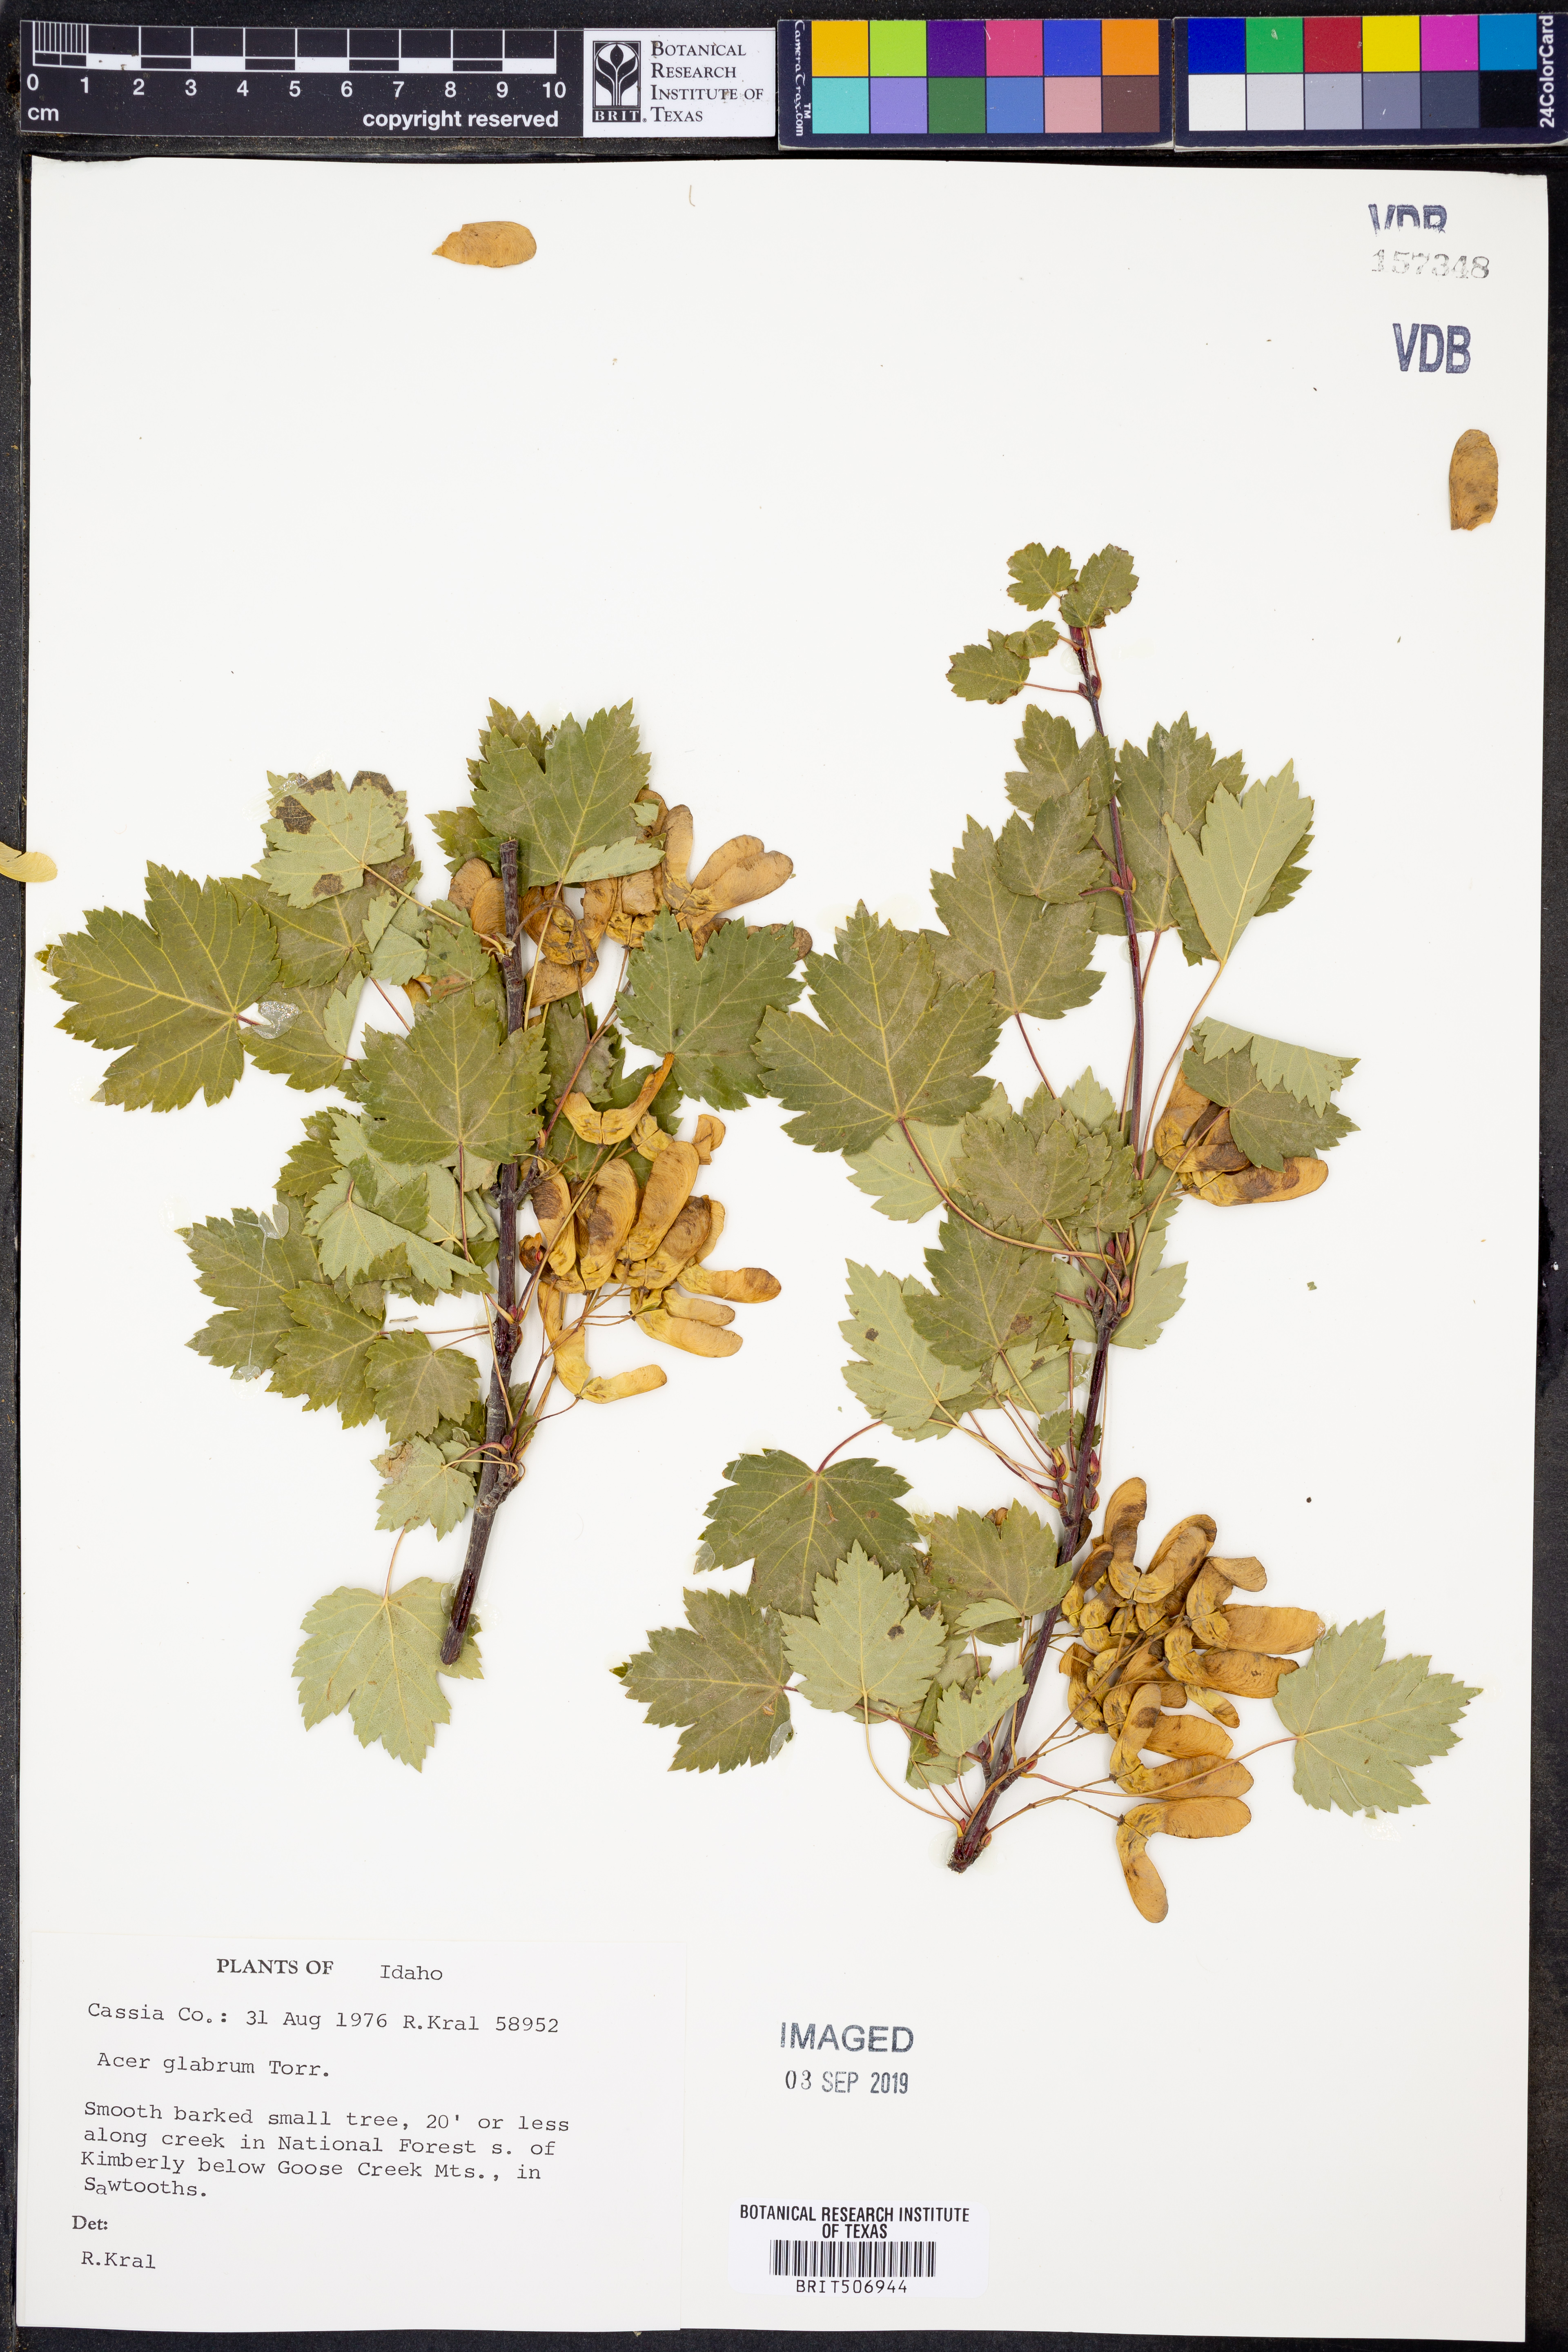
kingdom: Plantae
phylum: Tracheophyta
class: Magnoliopsida
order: Sapindales
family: Sapindaceae
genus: Acer
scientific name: Acer glabrum
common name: Rocky mountain maple
